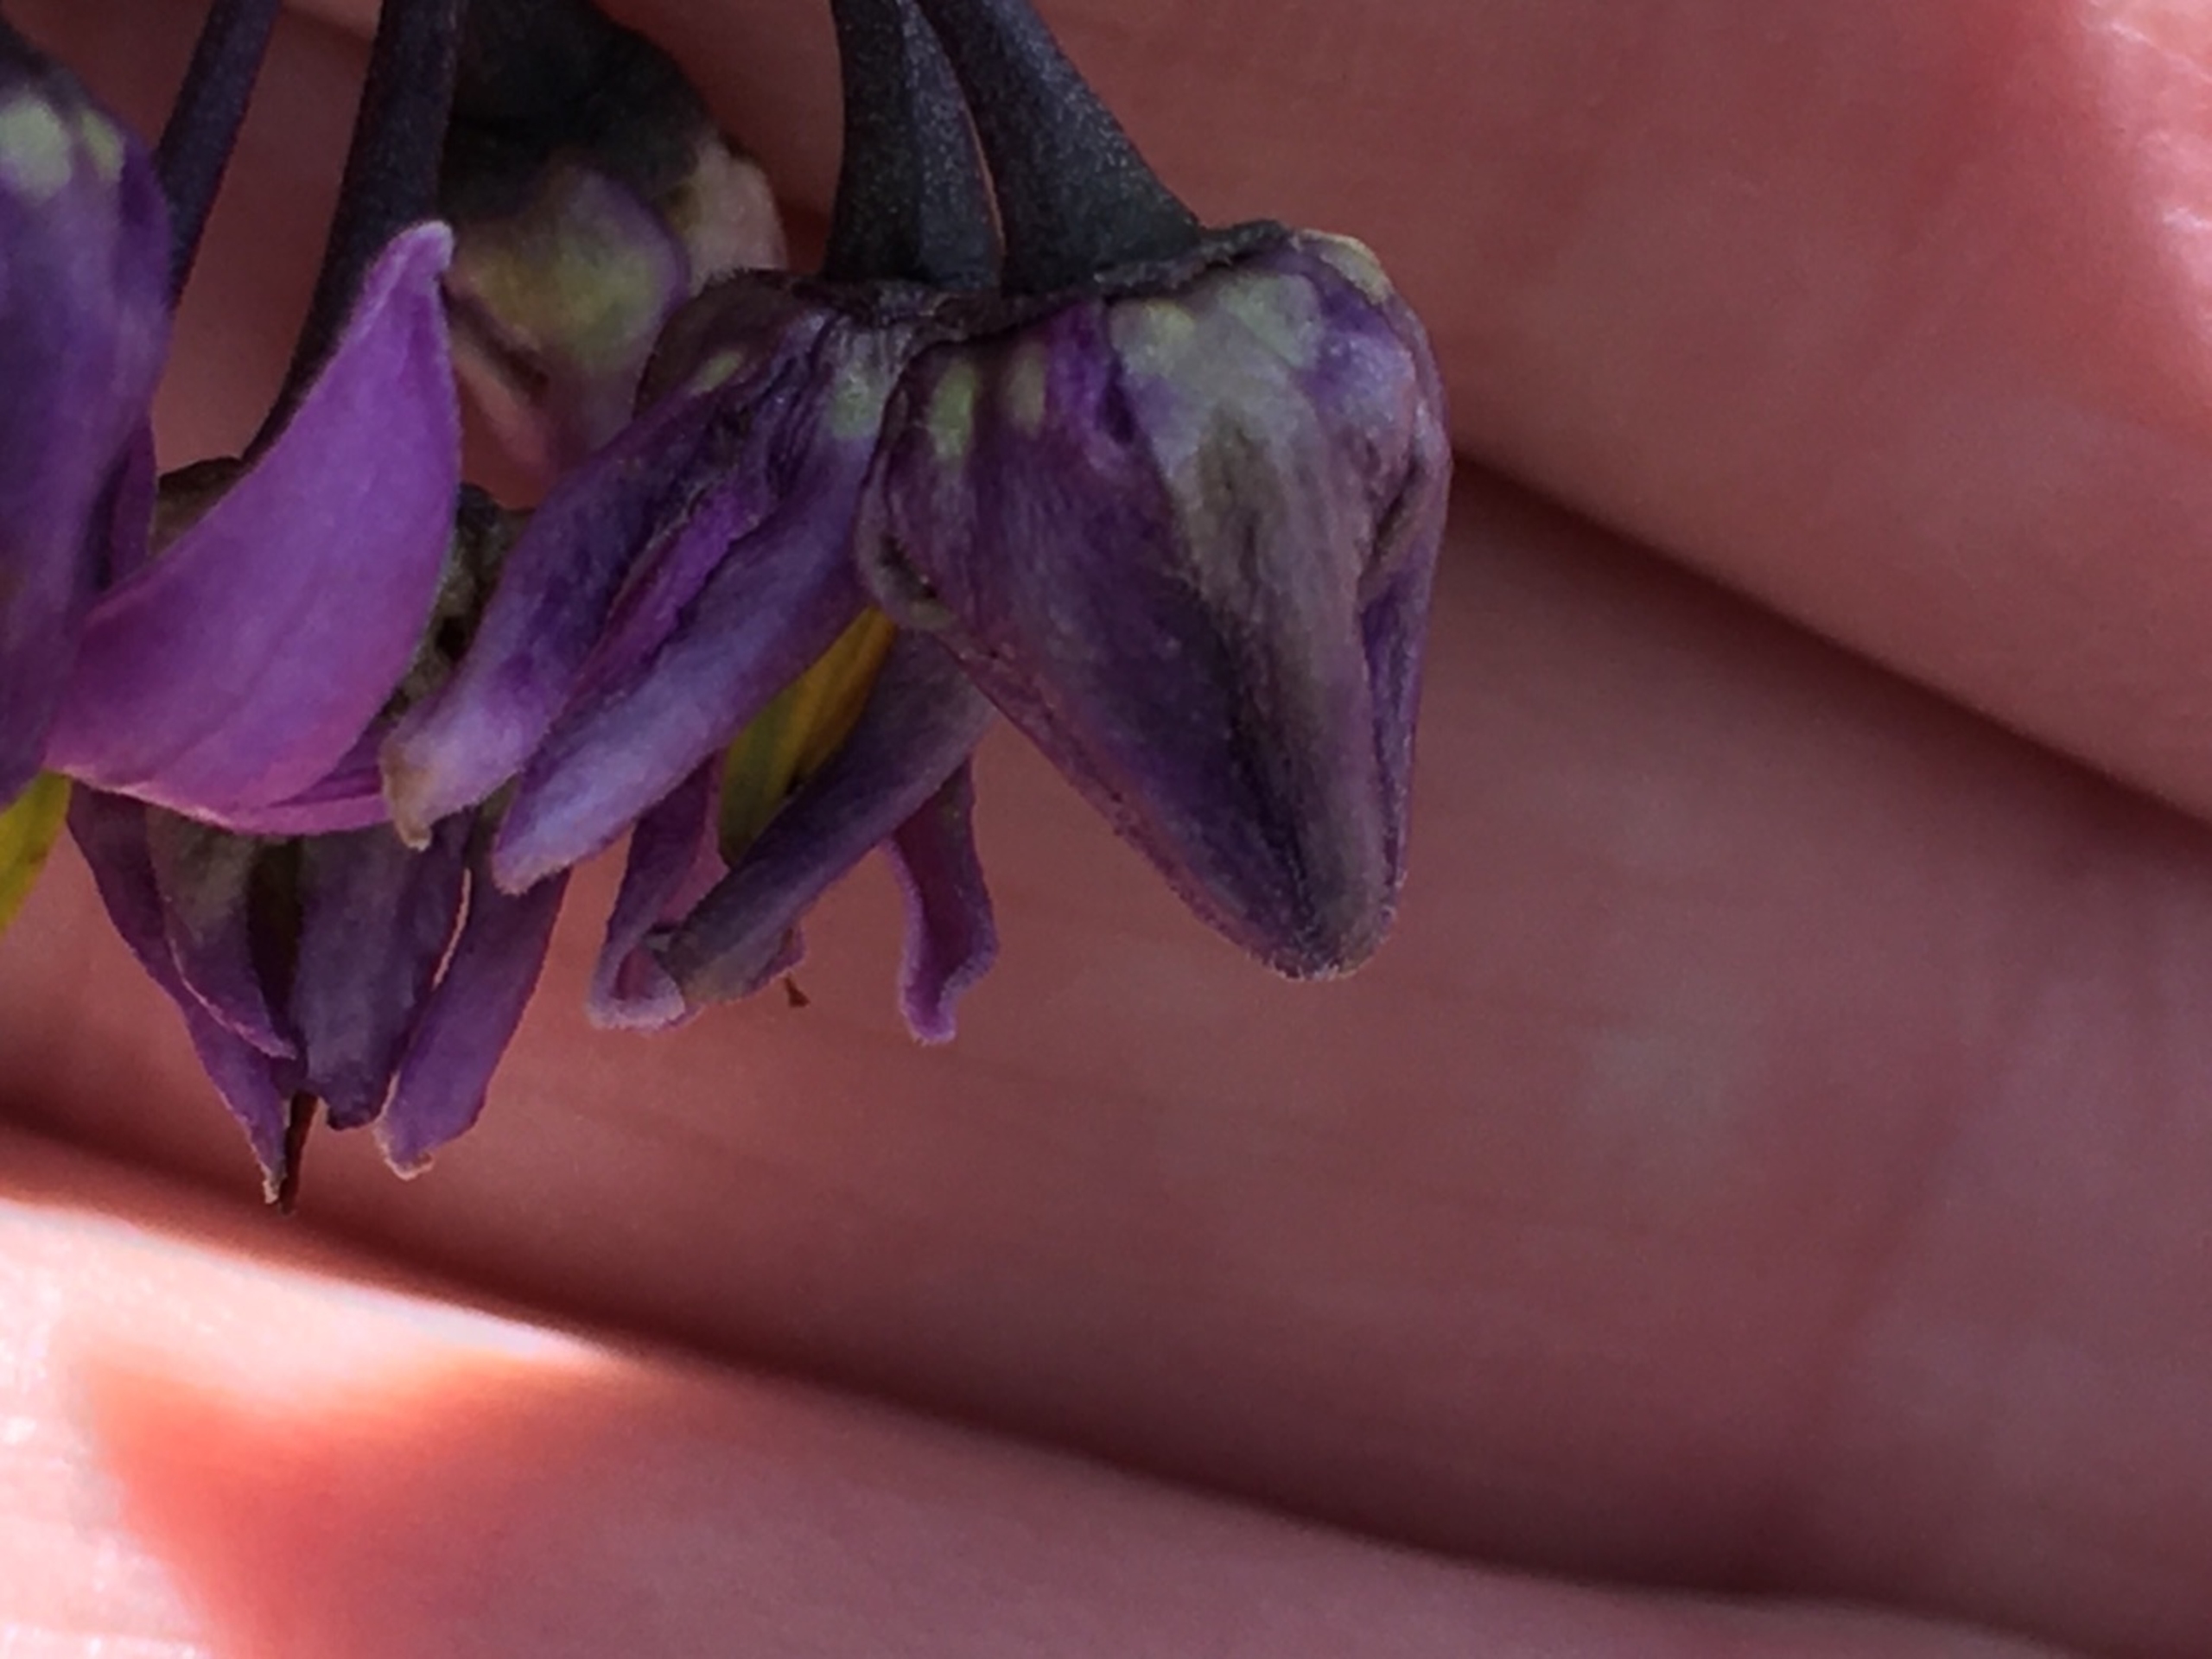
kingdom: Animalia
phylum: Arthropoda
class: Insecta
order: Diptera
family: Cecidomyiidae
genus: Contarinia
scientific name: Contarinia solani
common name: Natskyggegalmyg
